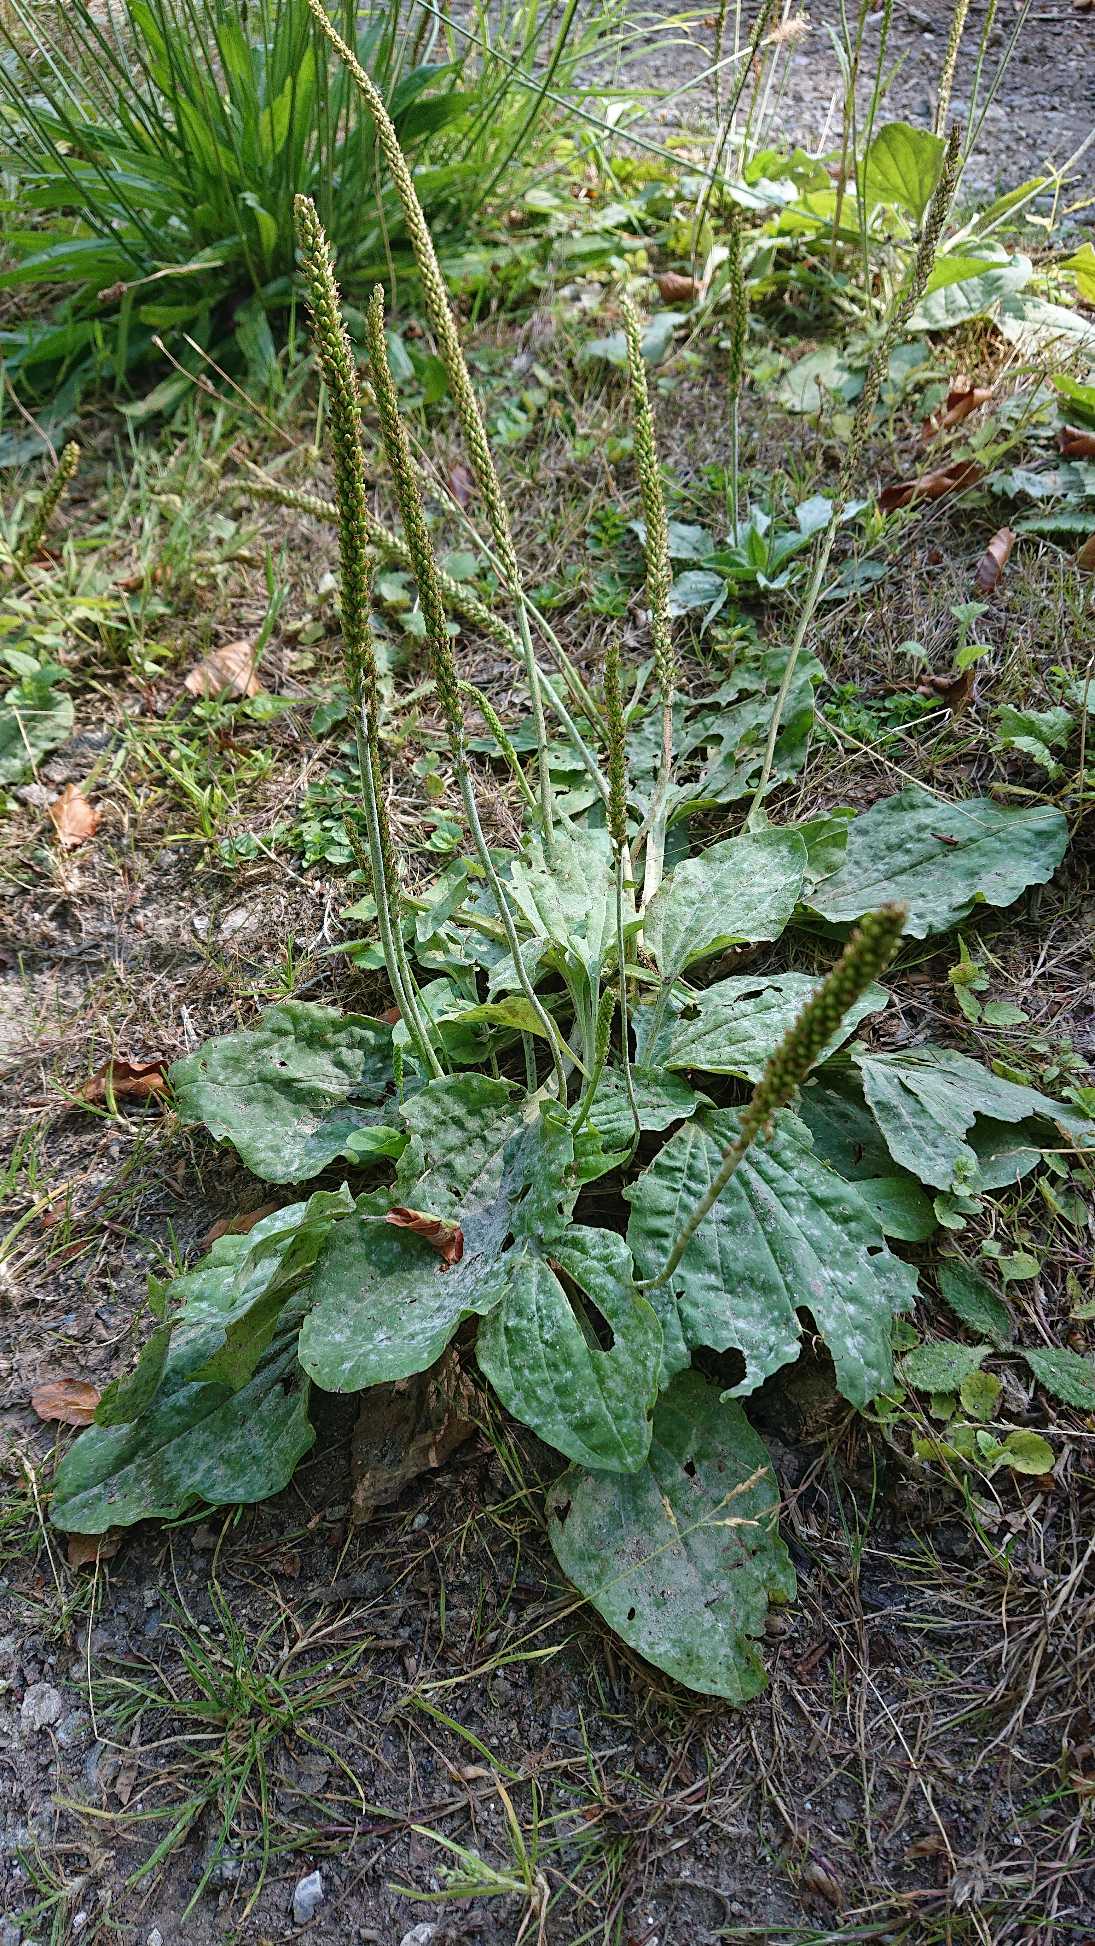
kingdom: Plantae
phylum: Tracheophyta
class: Magnoliopsida
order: Lamiales
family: Plantaginaceae
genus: Plantago
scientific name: Plantago major
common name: Glat vejbred
